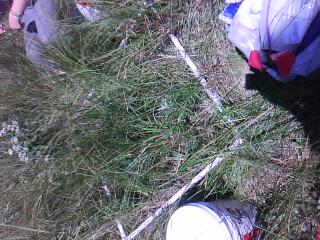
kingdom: Plantae
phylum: Tracheophyta
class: Liliopsida
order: Poales
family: Cyperaceae
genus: Carex
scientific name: Carex stricta
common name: Hummock sedge
